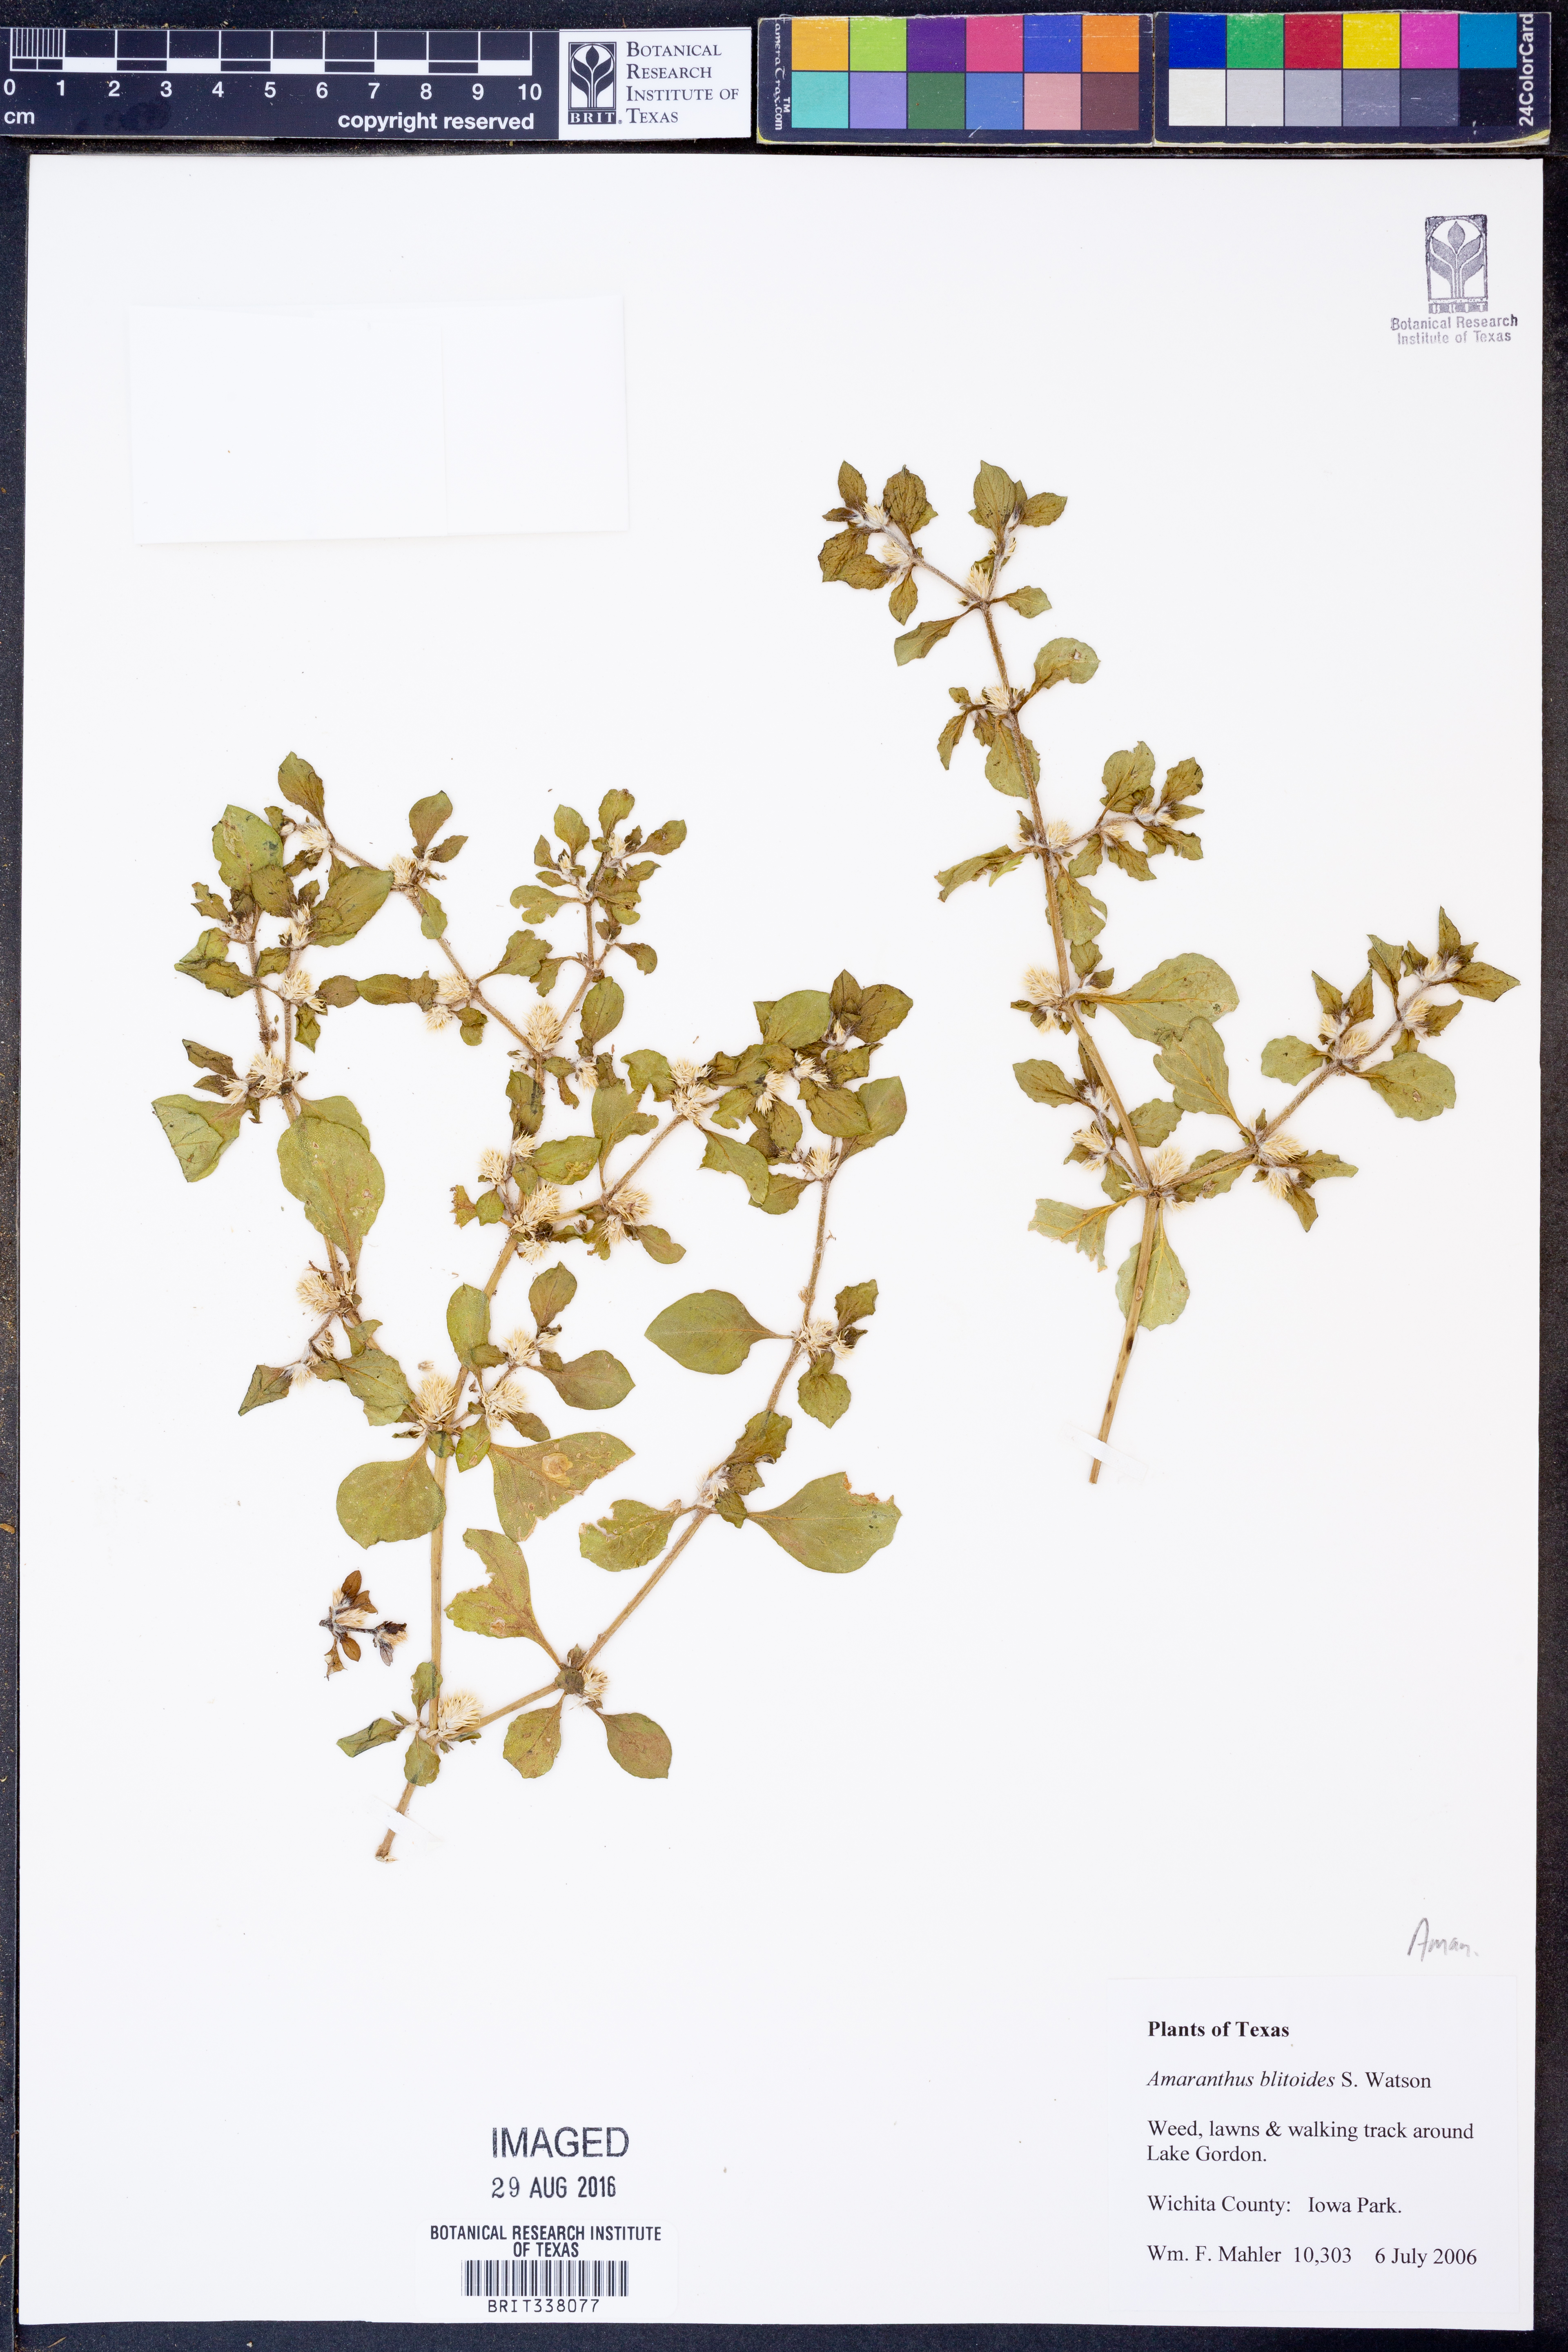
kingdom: Plantae
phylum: Tracheophyta
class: Magnoliopsida
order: Caryophyllales
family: Amaranthaceae
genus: Amaranthus
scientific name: Amaranthus blitoides
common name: Prostrate pigweed
